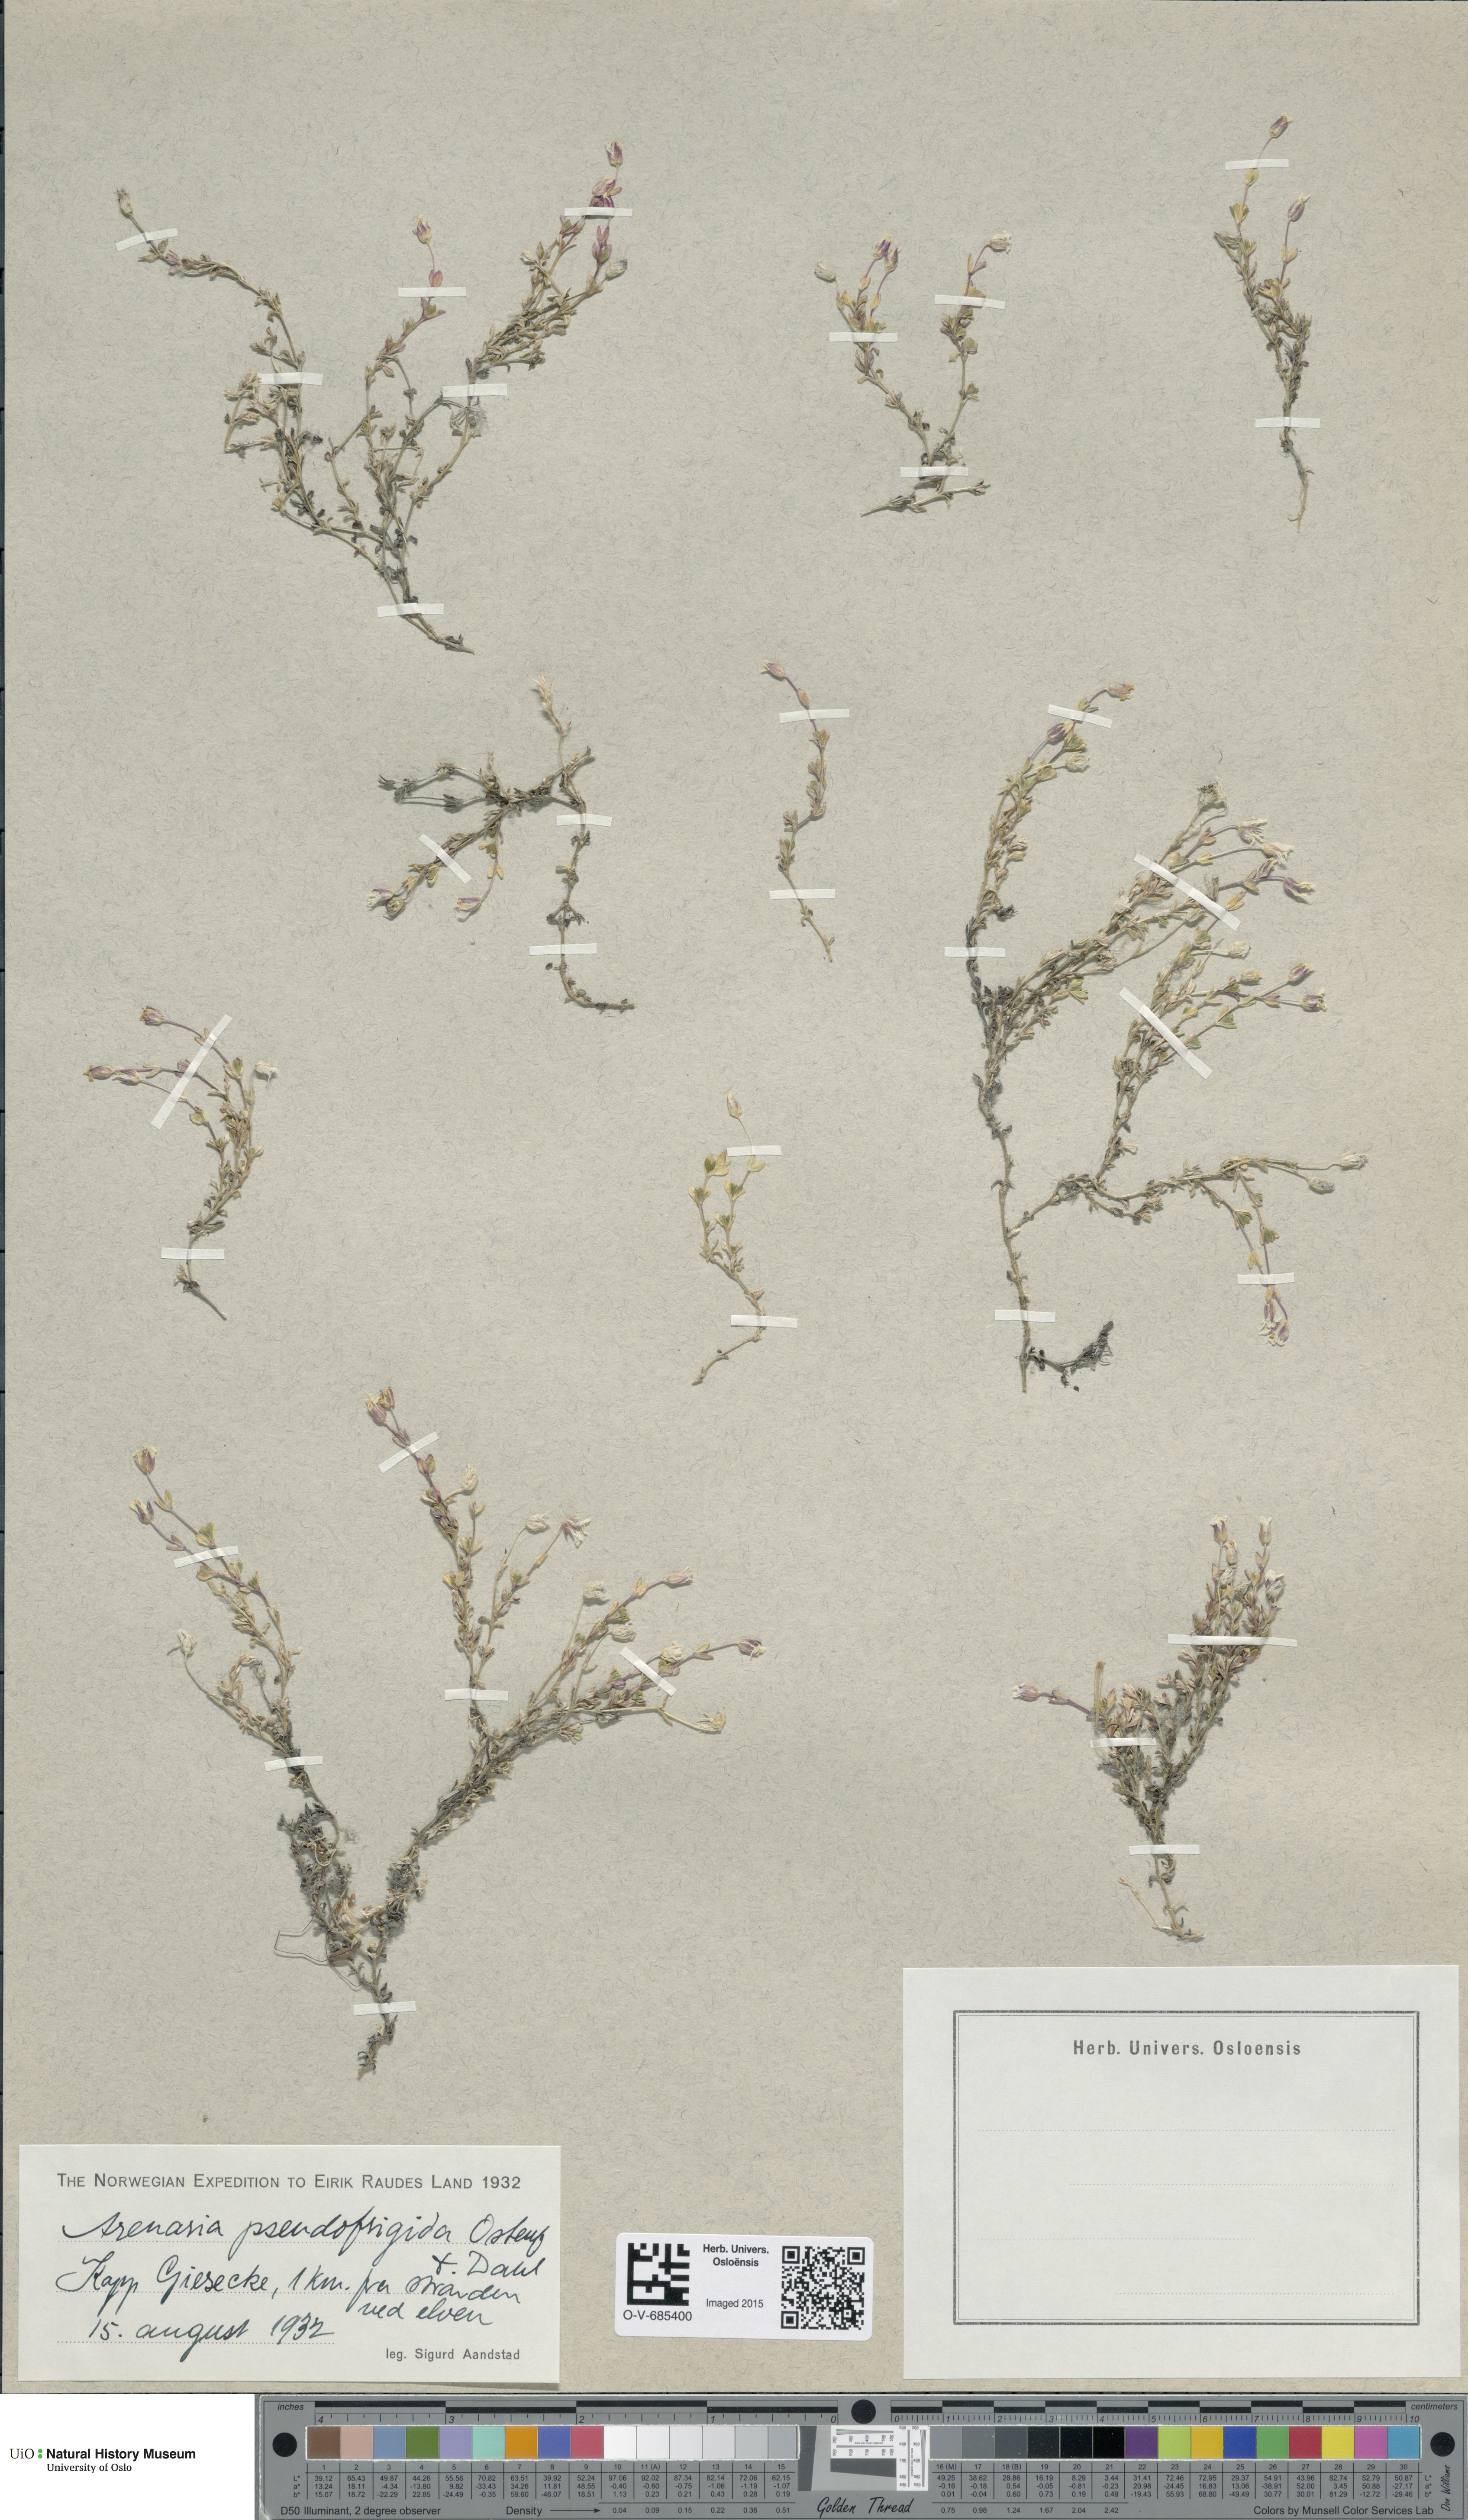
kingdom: Plantae
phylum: Tracheophyta
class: Magnoliopsida
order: Caryophyllales
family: Caryophyllaceae
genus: Arenaria
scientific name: Arenaria pseudofrigida
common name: Tundra sandwort
